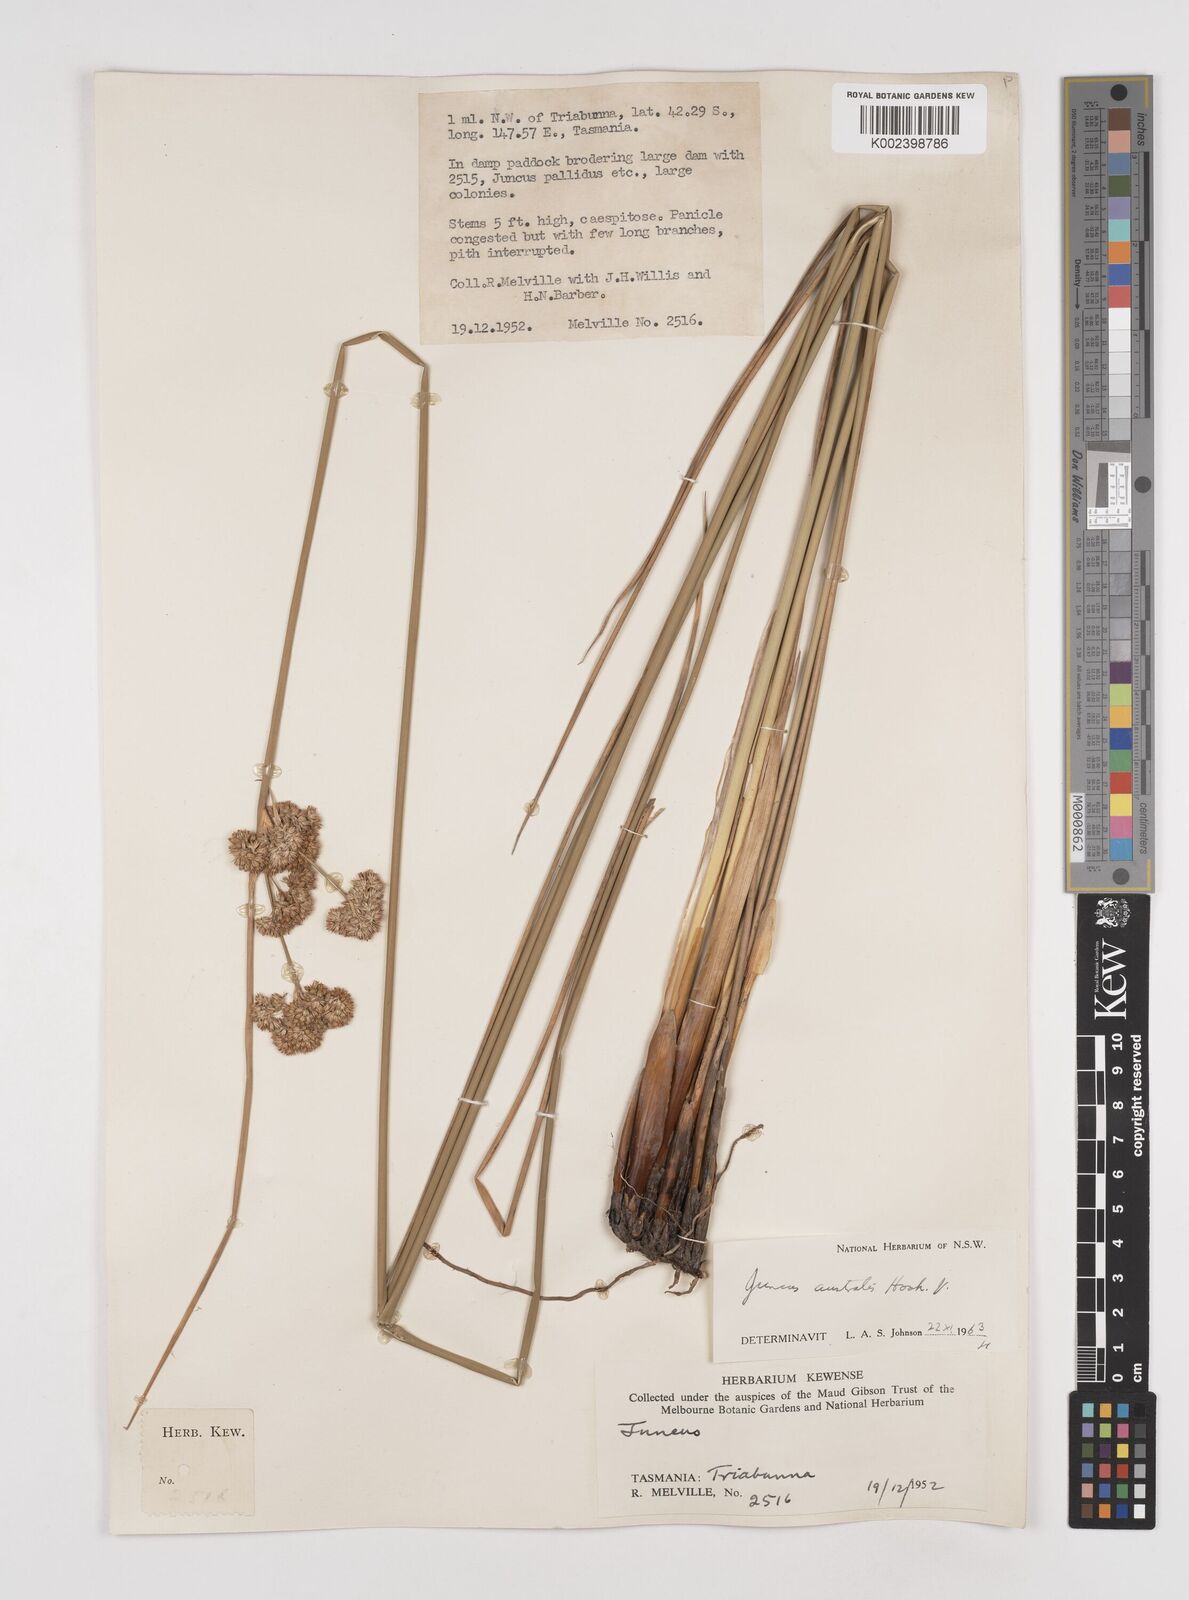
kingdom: Plantae
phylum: Tracheophyta
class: Liliopsida
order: Poales
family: Juncaceae
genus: Juncus
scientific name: Juncus australis
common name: Austral rush
